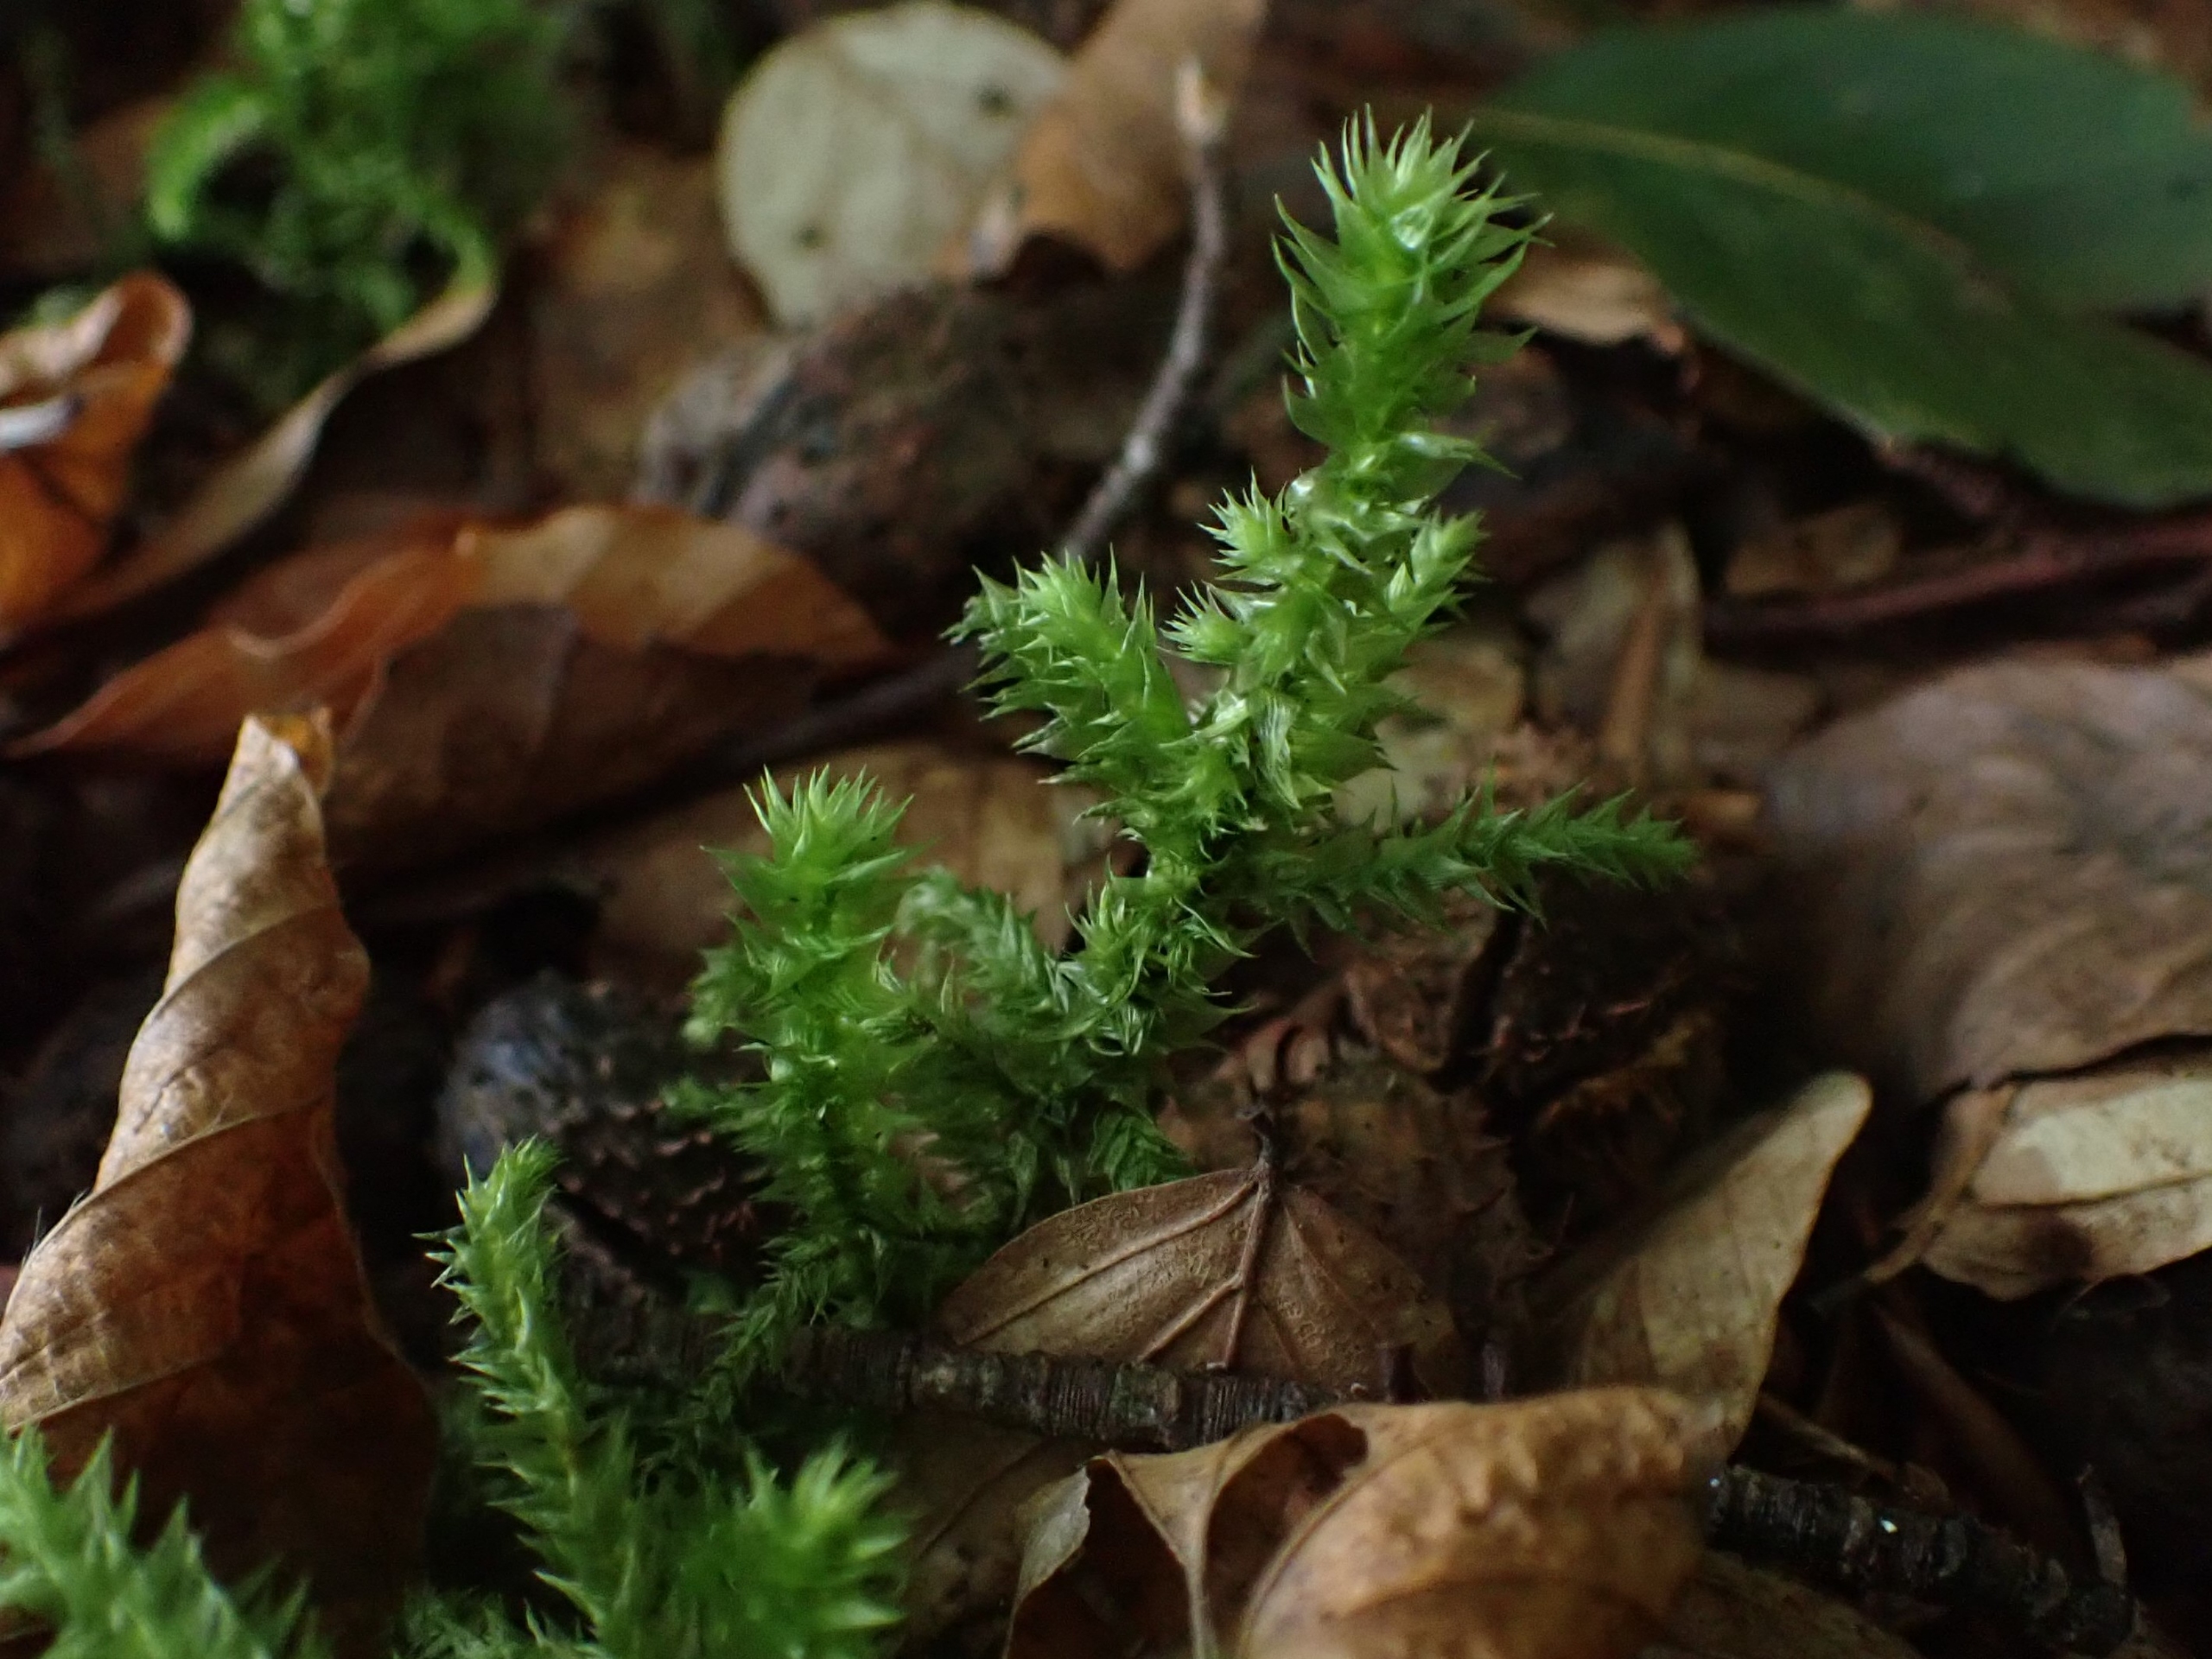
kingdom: Plantae
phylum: Bryophyta
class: Bryopsida
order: Hypnales
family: Hylocomiaceae
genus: Hylocomiadelphus
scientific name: Hylocomiadelphus triquetrus
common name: Stor kransemos
